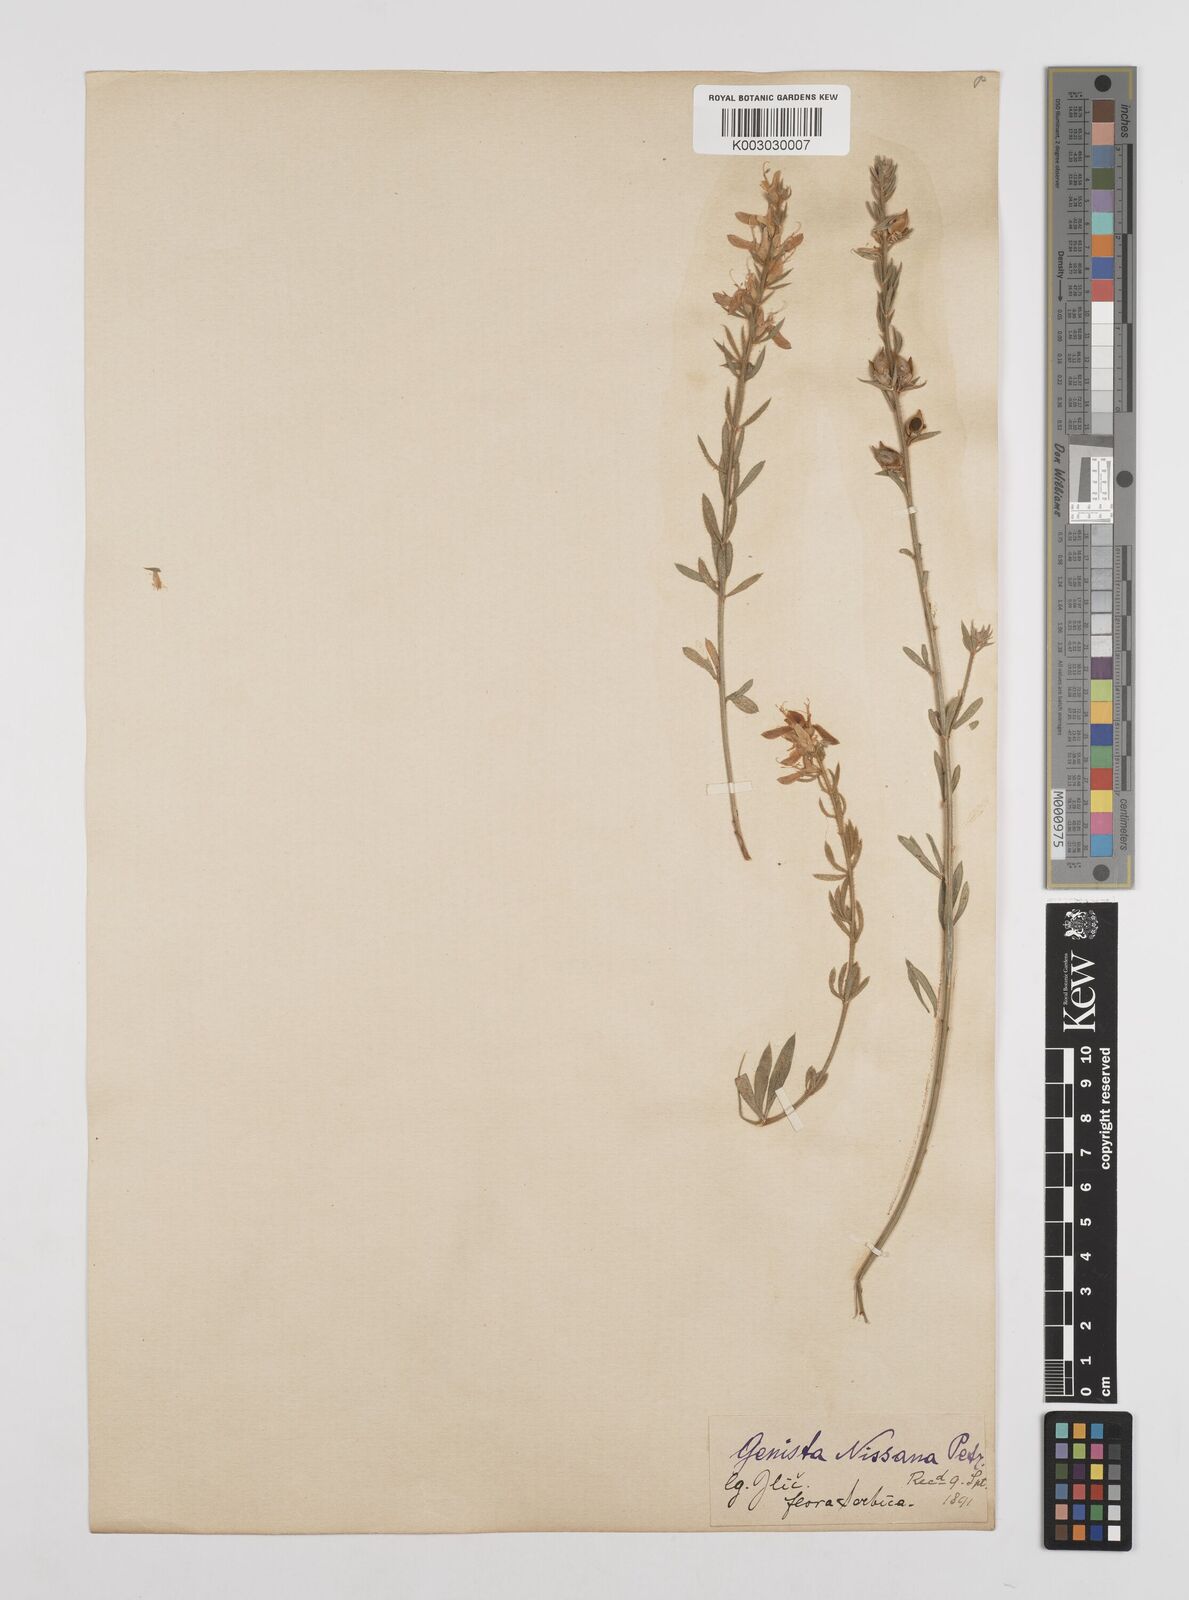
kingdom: Plantae
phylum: Tracheophyta
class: Magnoliopsida
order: Fabales
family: Fabaceae
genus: Genista
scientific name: Genista nissana
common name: Macedonian broom
